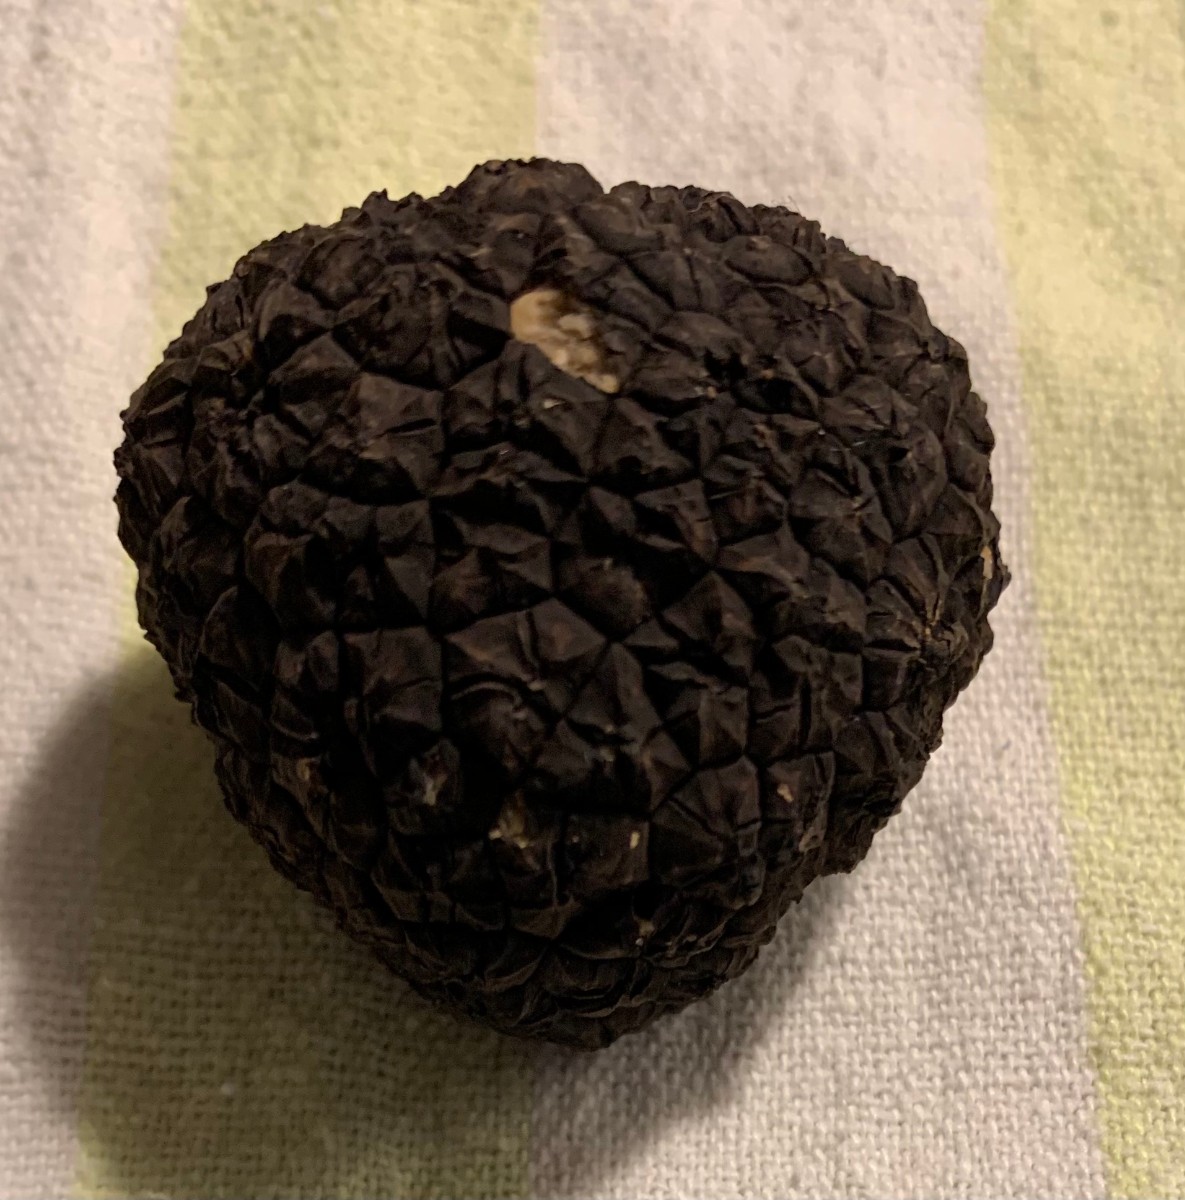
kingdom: Fungi
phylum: Ascomycota
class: Pezizomycetes
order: Pezizales
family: Tuberaceae
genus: Tuber
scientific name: Tuber aestivum
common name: sommer-trøffel
